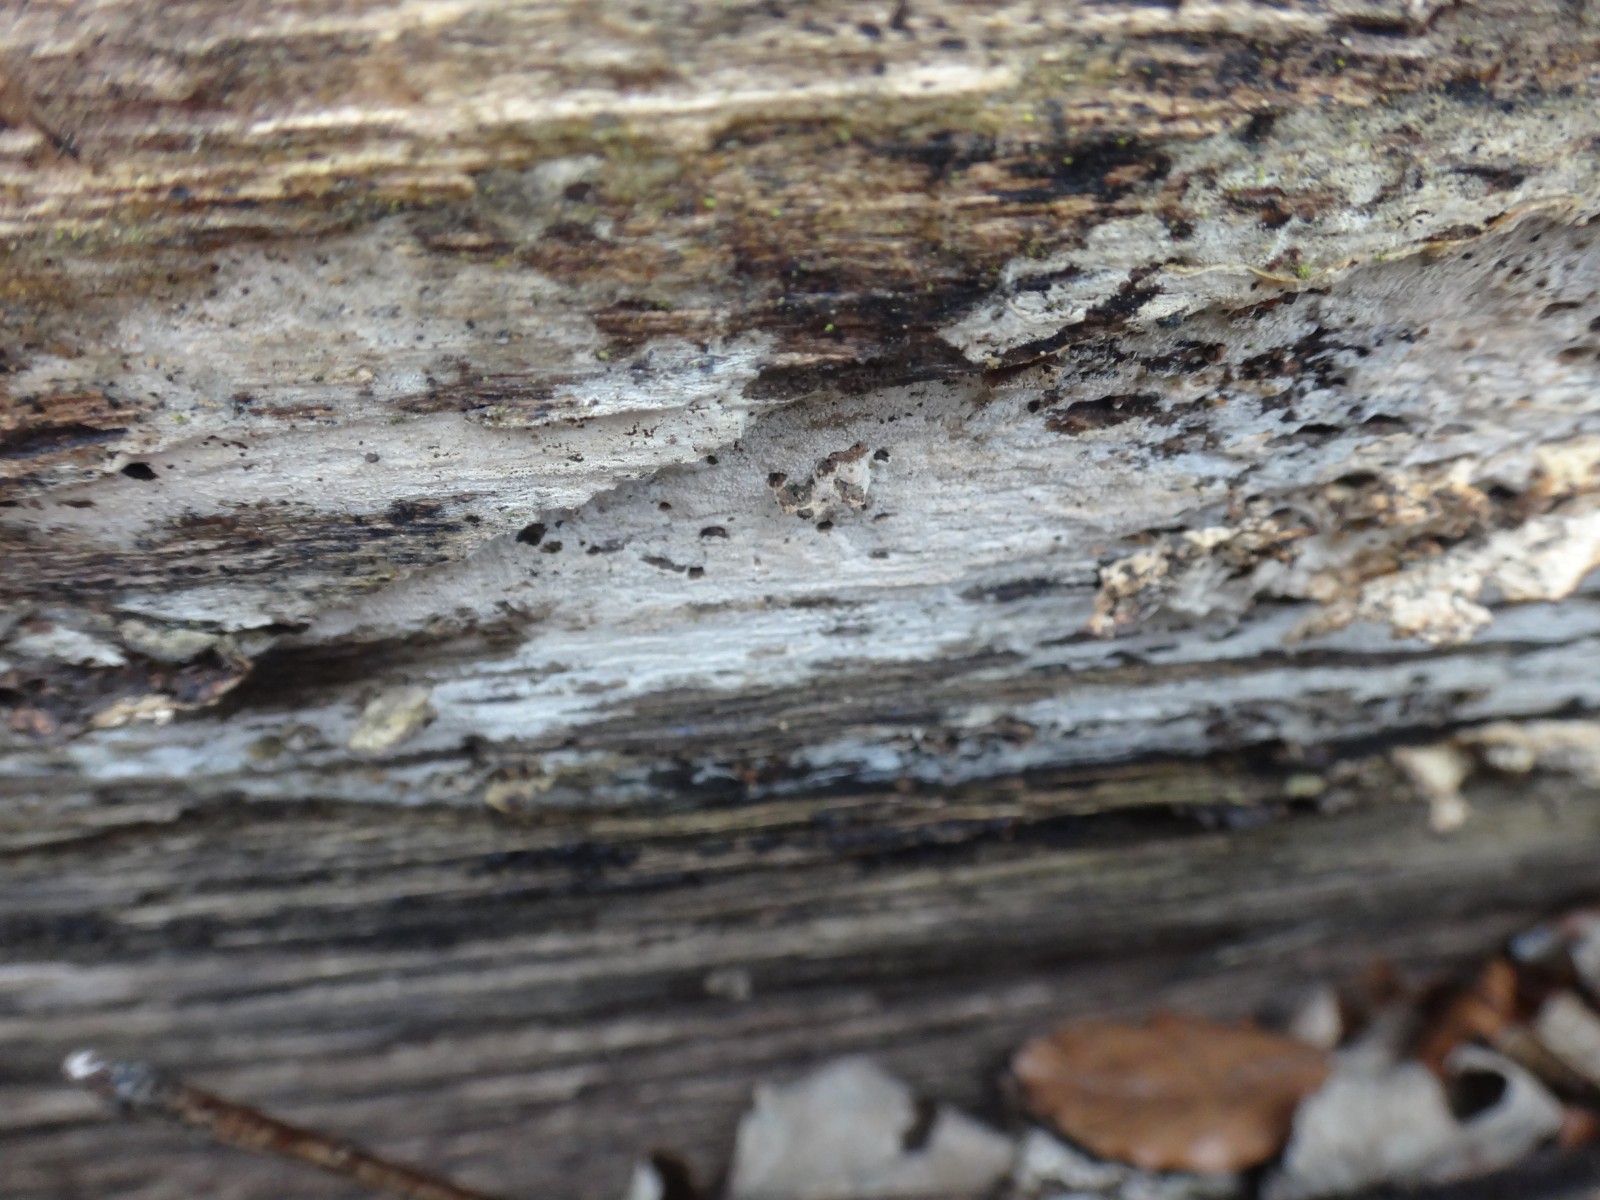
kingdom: Fungi
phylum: Basidiomycota
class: Agaricomycetes
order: Cantharellales
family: Hydnaceae
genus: Sistotrema
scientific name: Sistotrema brinkmannii
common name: bønnesporet kroneskorpe
